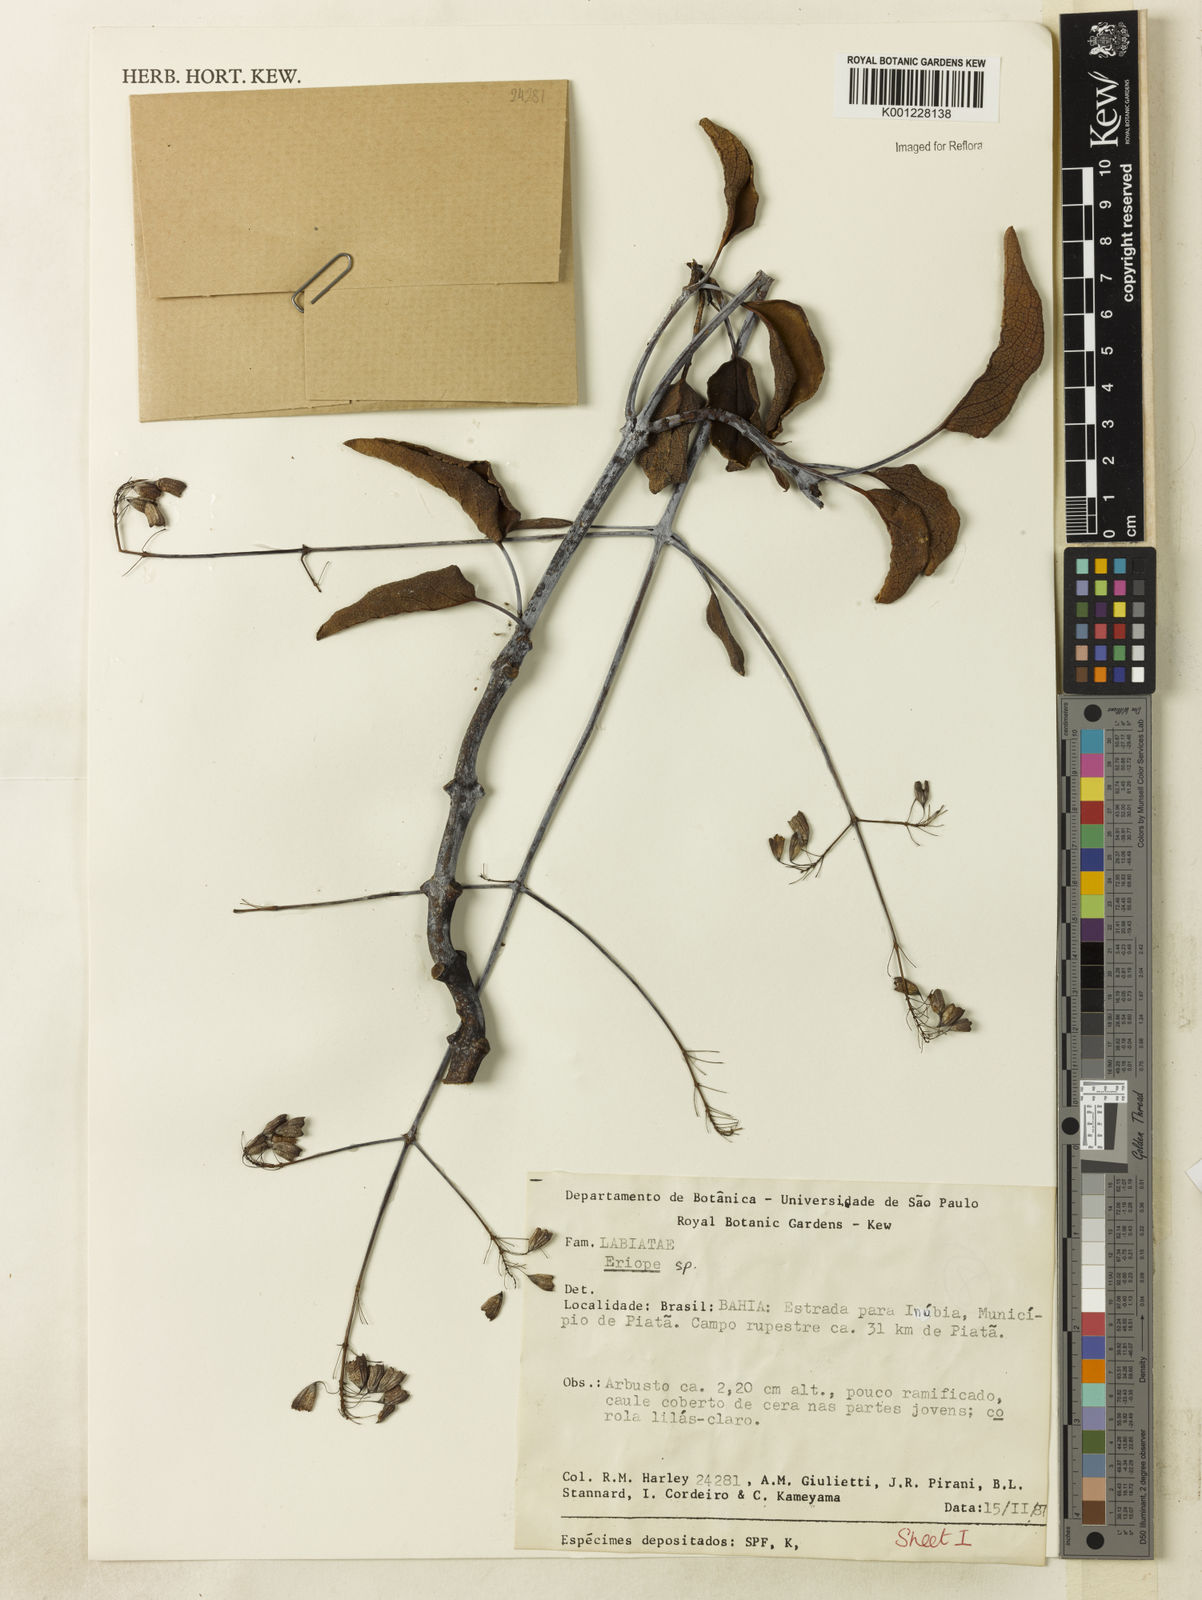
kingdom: Plantae
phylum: Tracheophyta
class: Magnoliopsida
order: Lamiales
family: Lamiaceae
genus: Eriope
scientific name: Eriope
